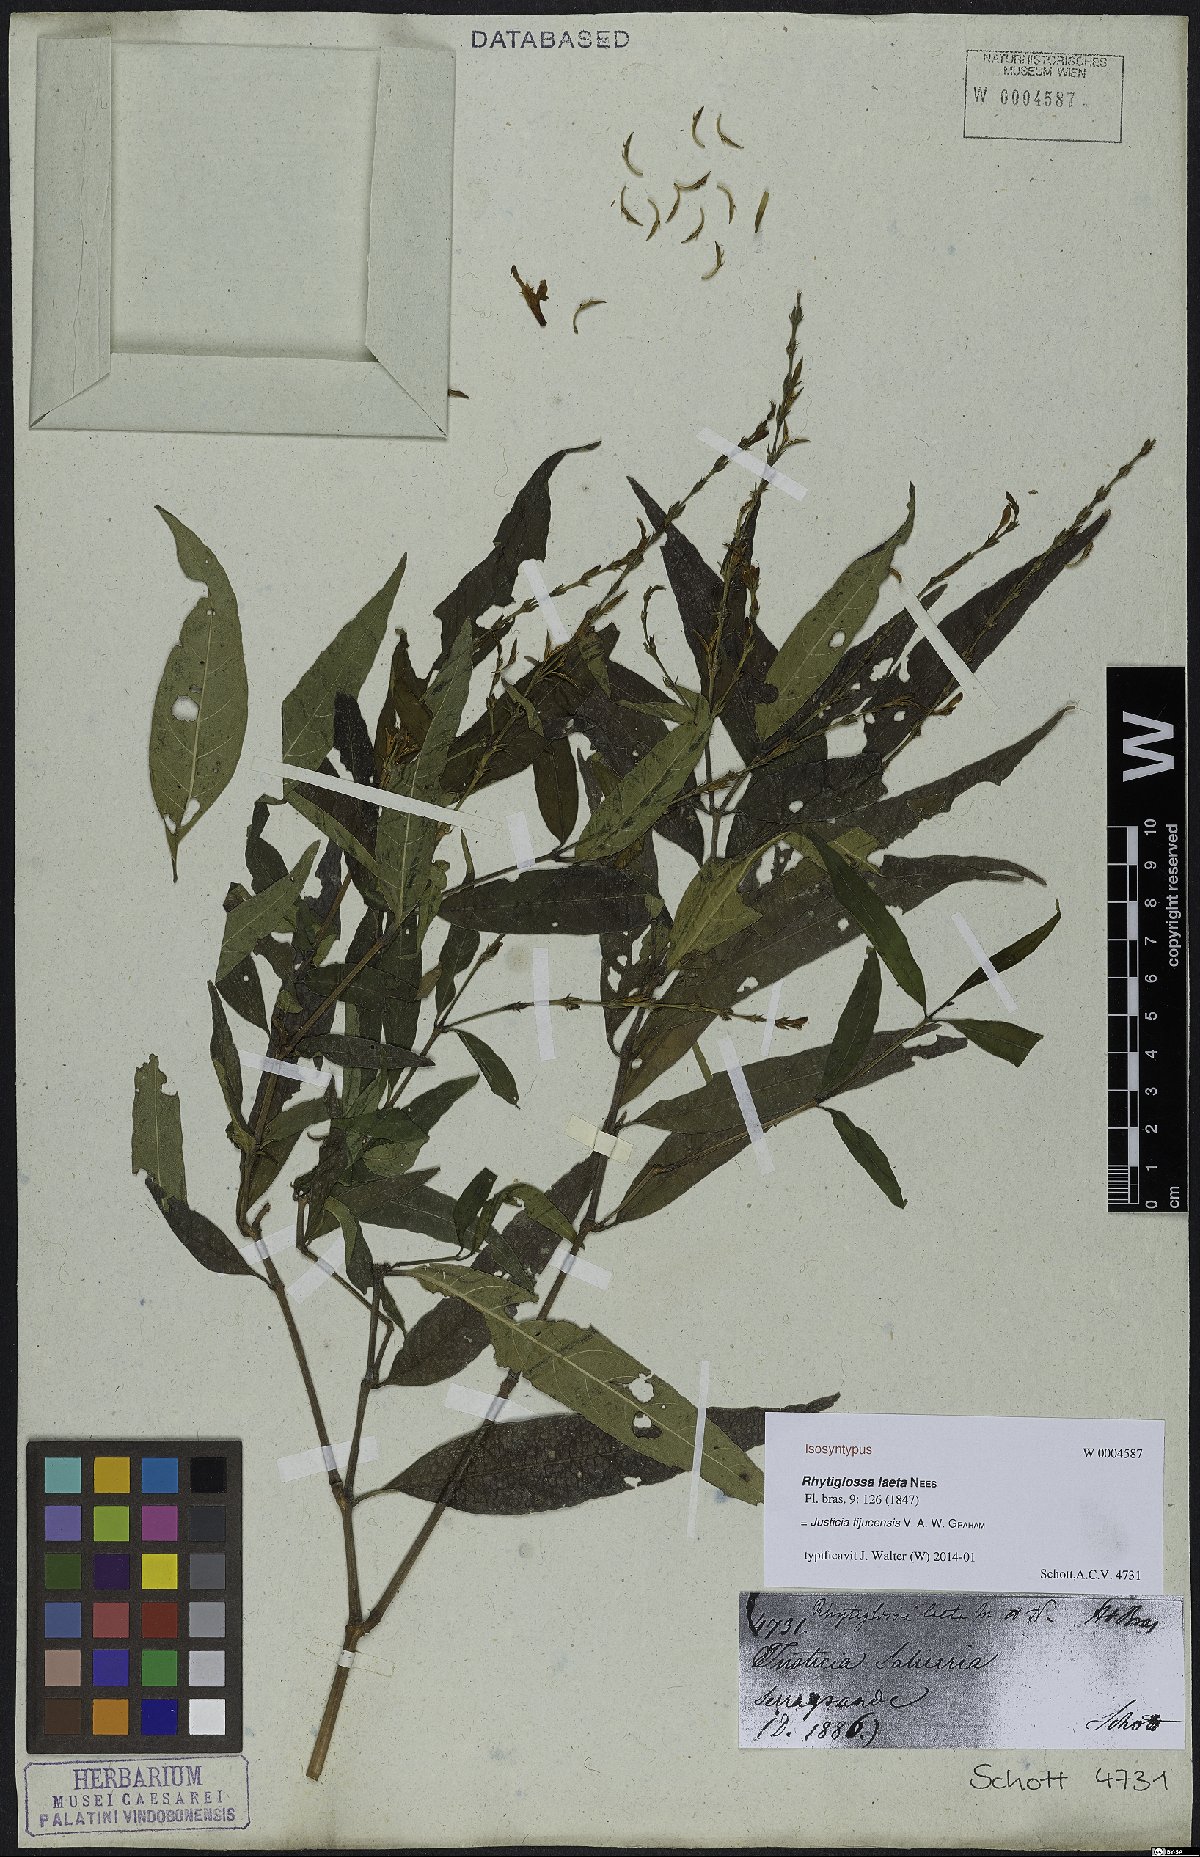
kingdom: Plantae
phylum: Tracheophyta
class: Magnoliopsida
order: Lamiales
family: Acanthaceae
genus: Dianthera
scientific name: Dianthera laeta
